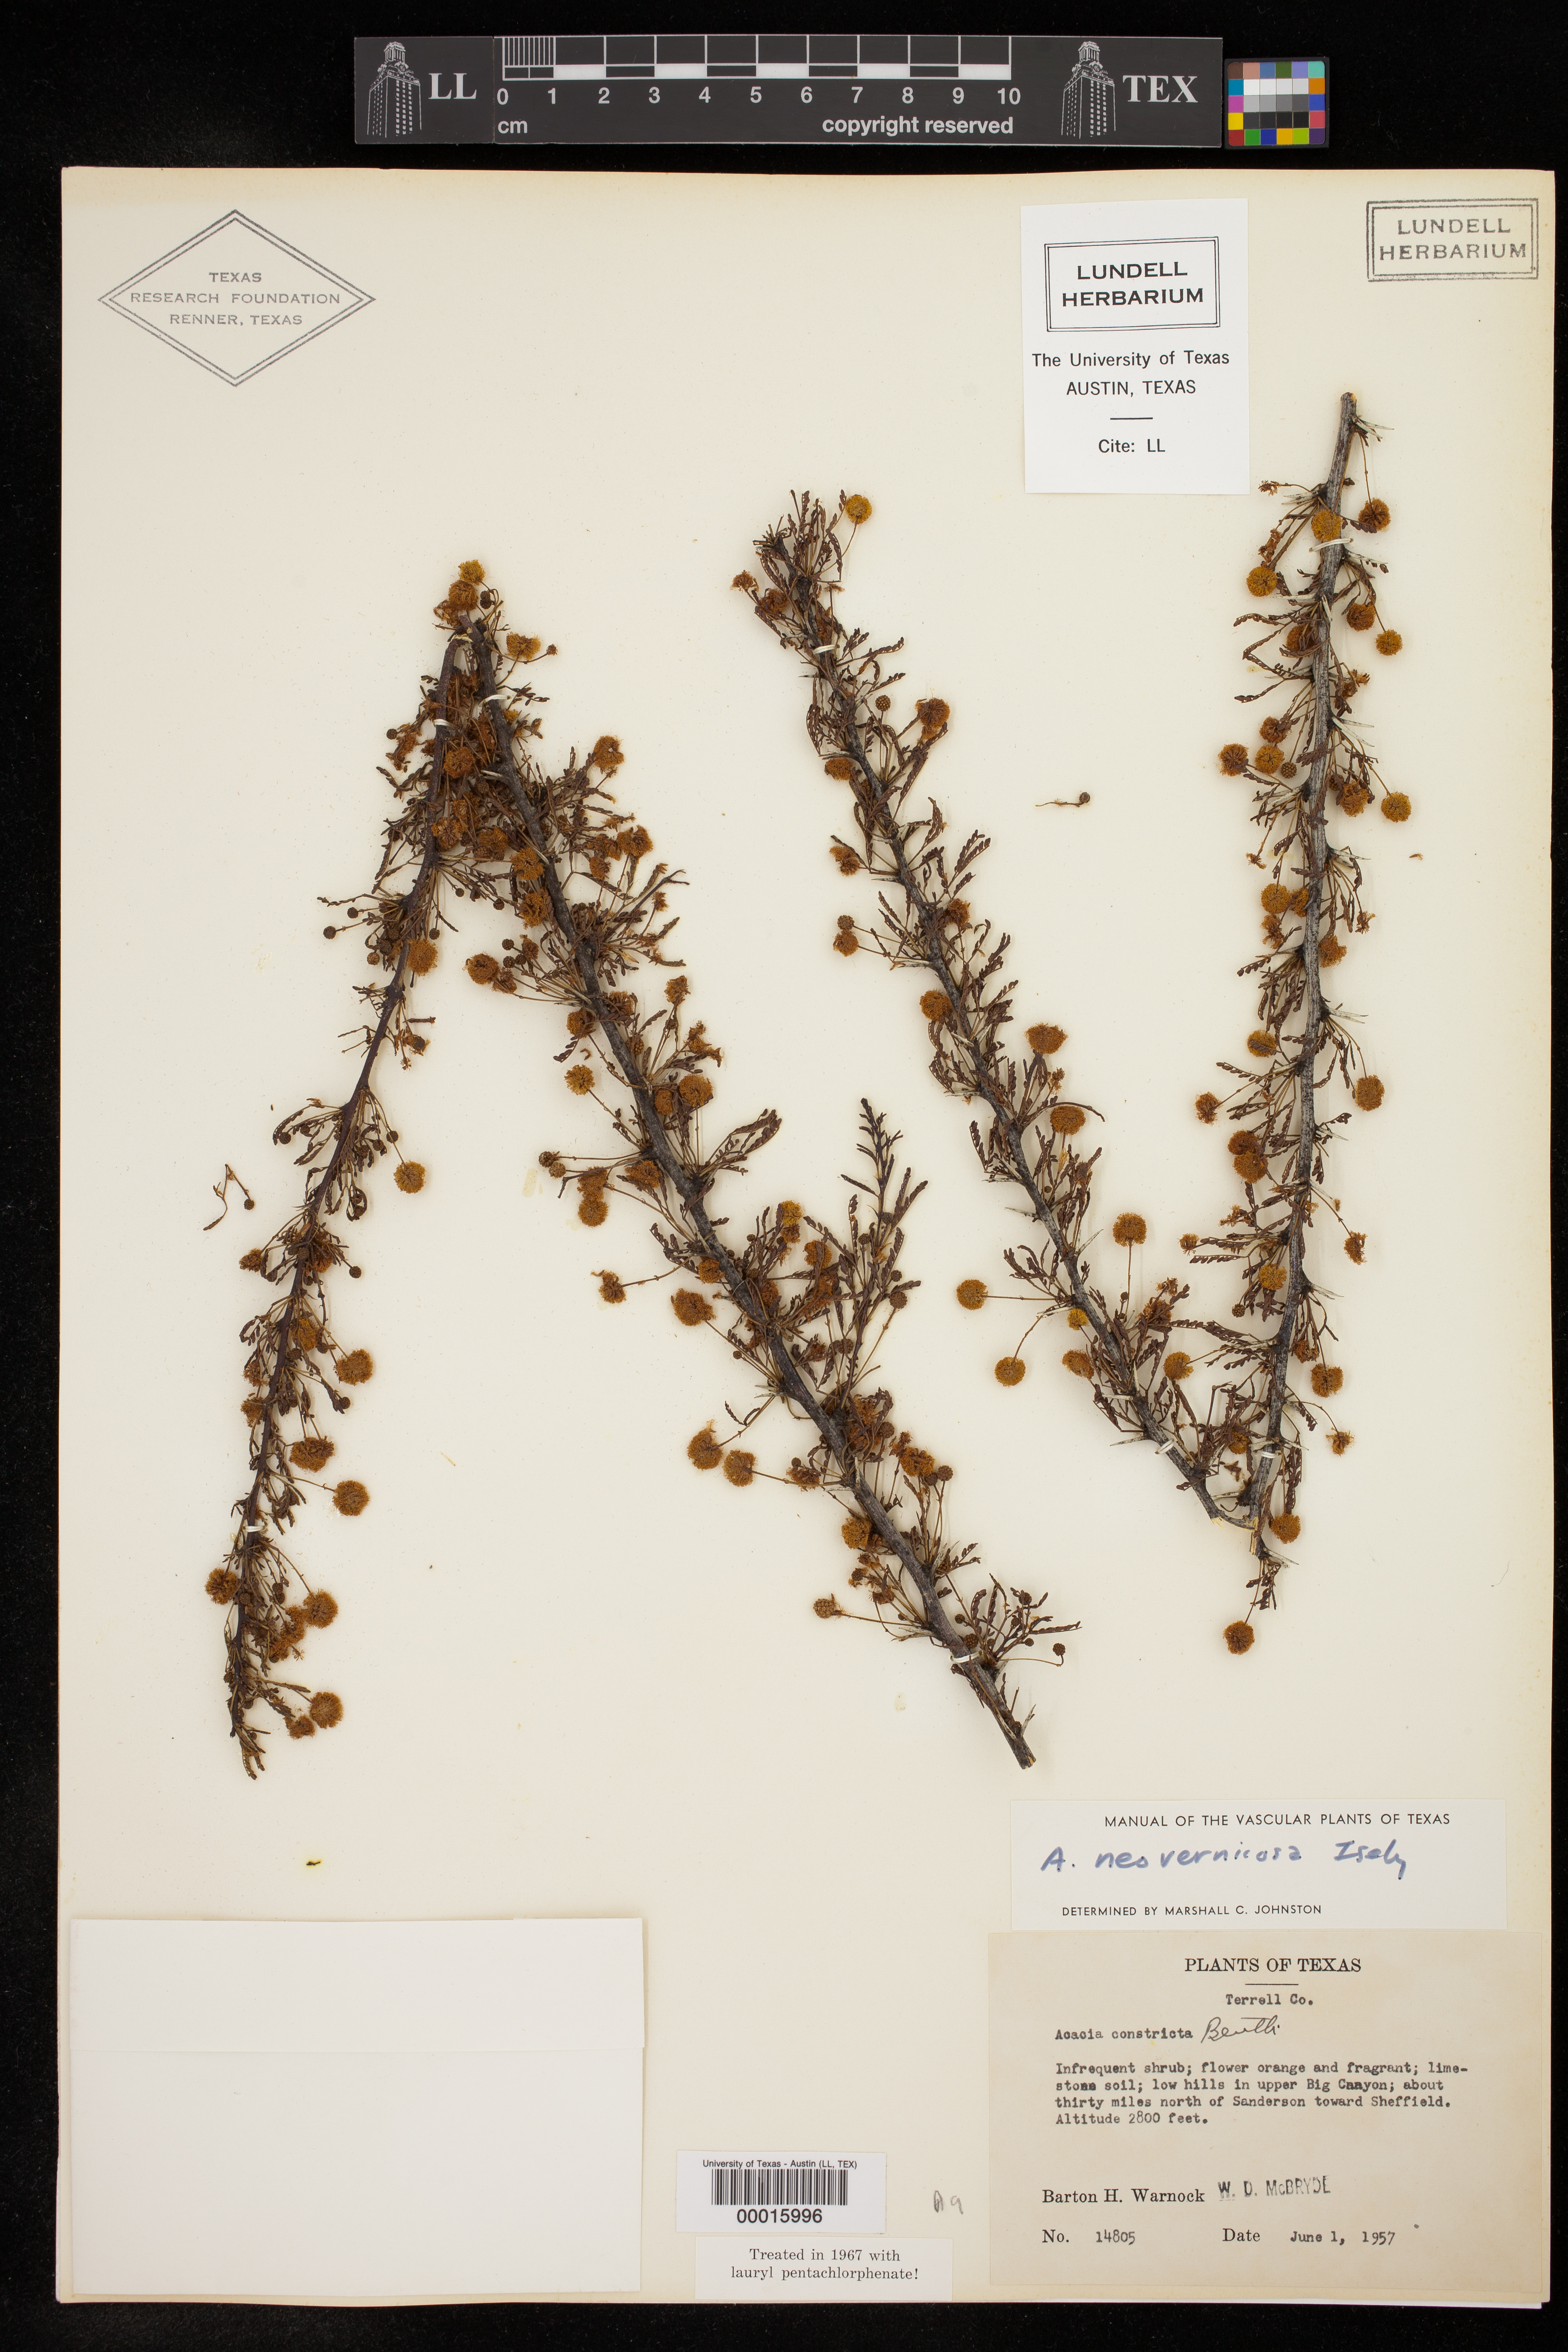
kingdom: Plantae
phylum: Tracheophyta
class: Magnoliopsida
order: Fabales
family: Fabaceae
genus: Vachellia
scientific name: Vachellia vernicosa
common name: Viscid acacia
